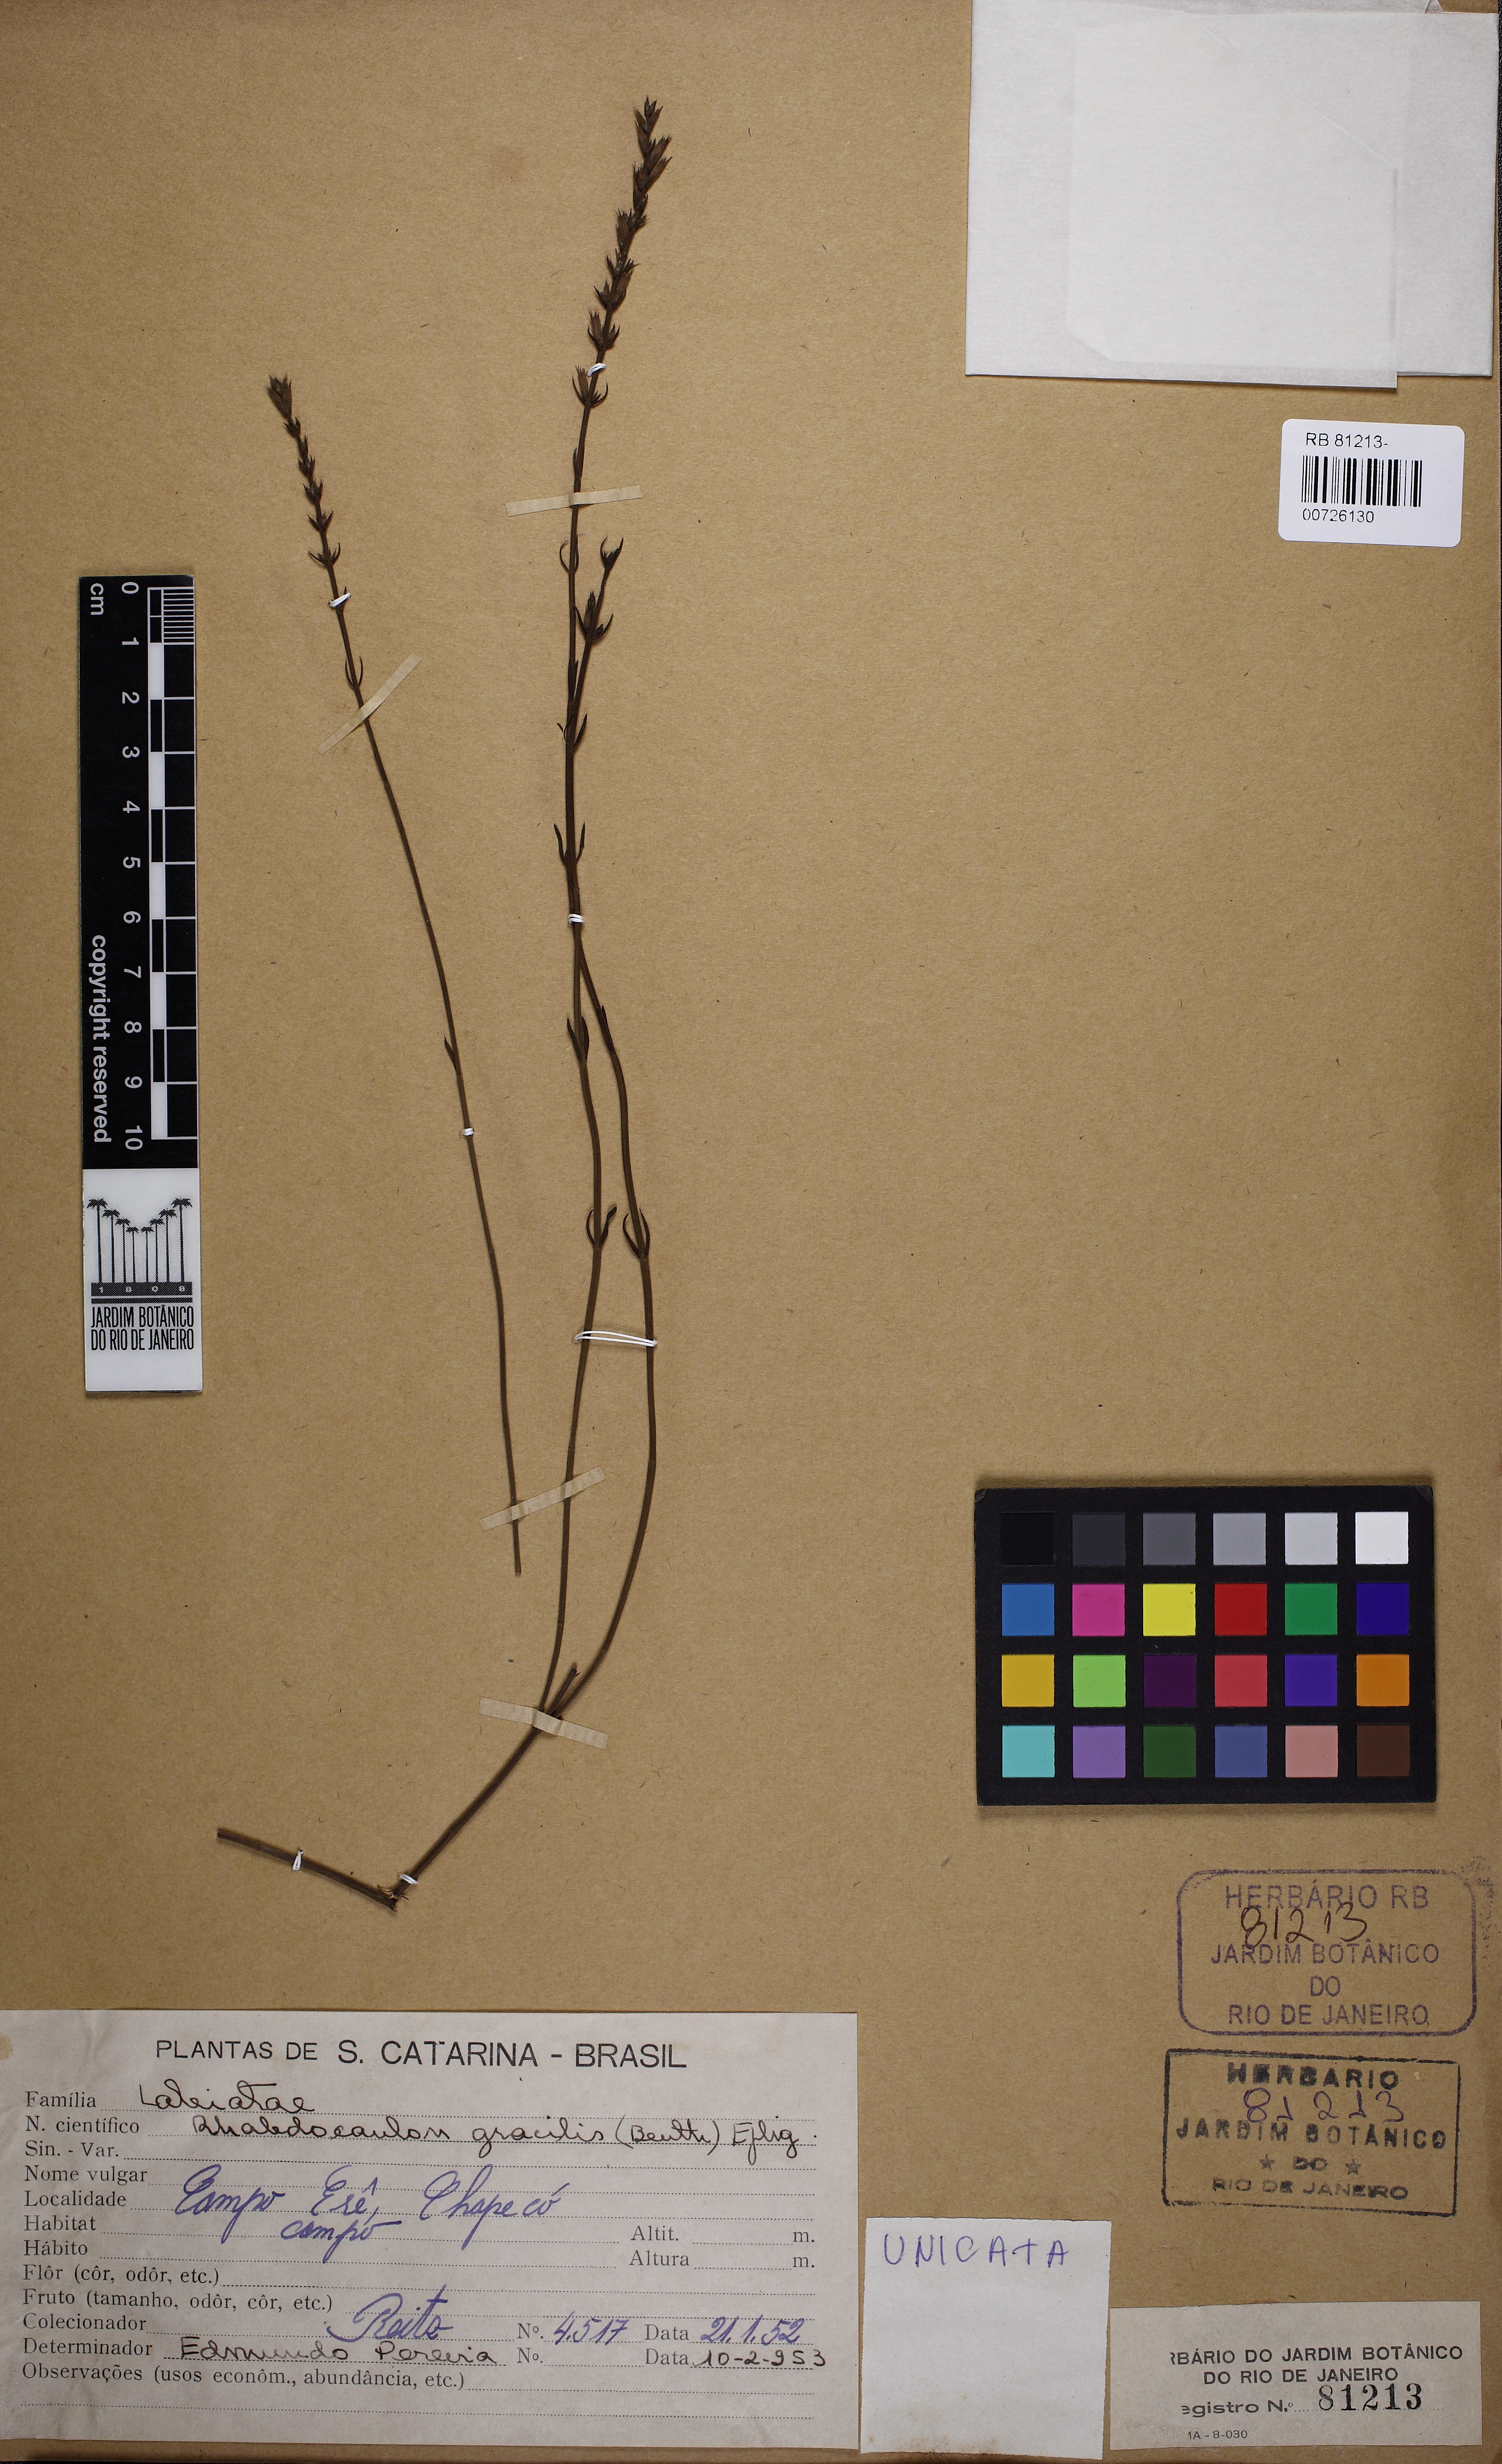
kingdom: Plantae
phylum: Tracheophyta
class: Magnoliopsida
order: Lamiales
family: Lamiaceae
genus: Rhabdocaulon
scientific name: Rhabdocaulon gracile
